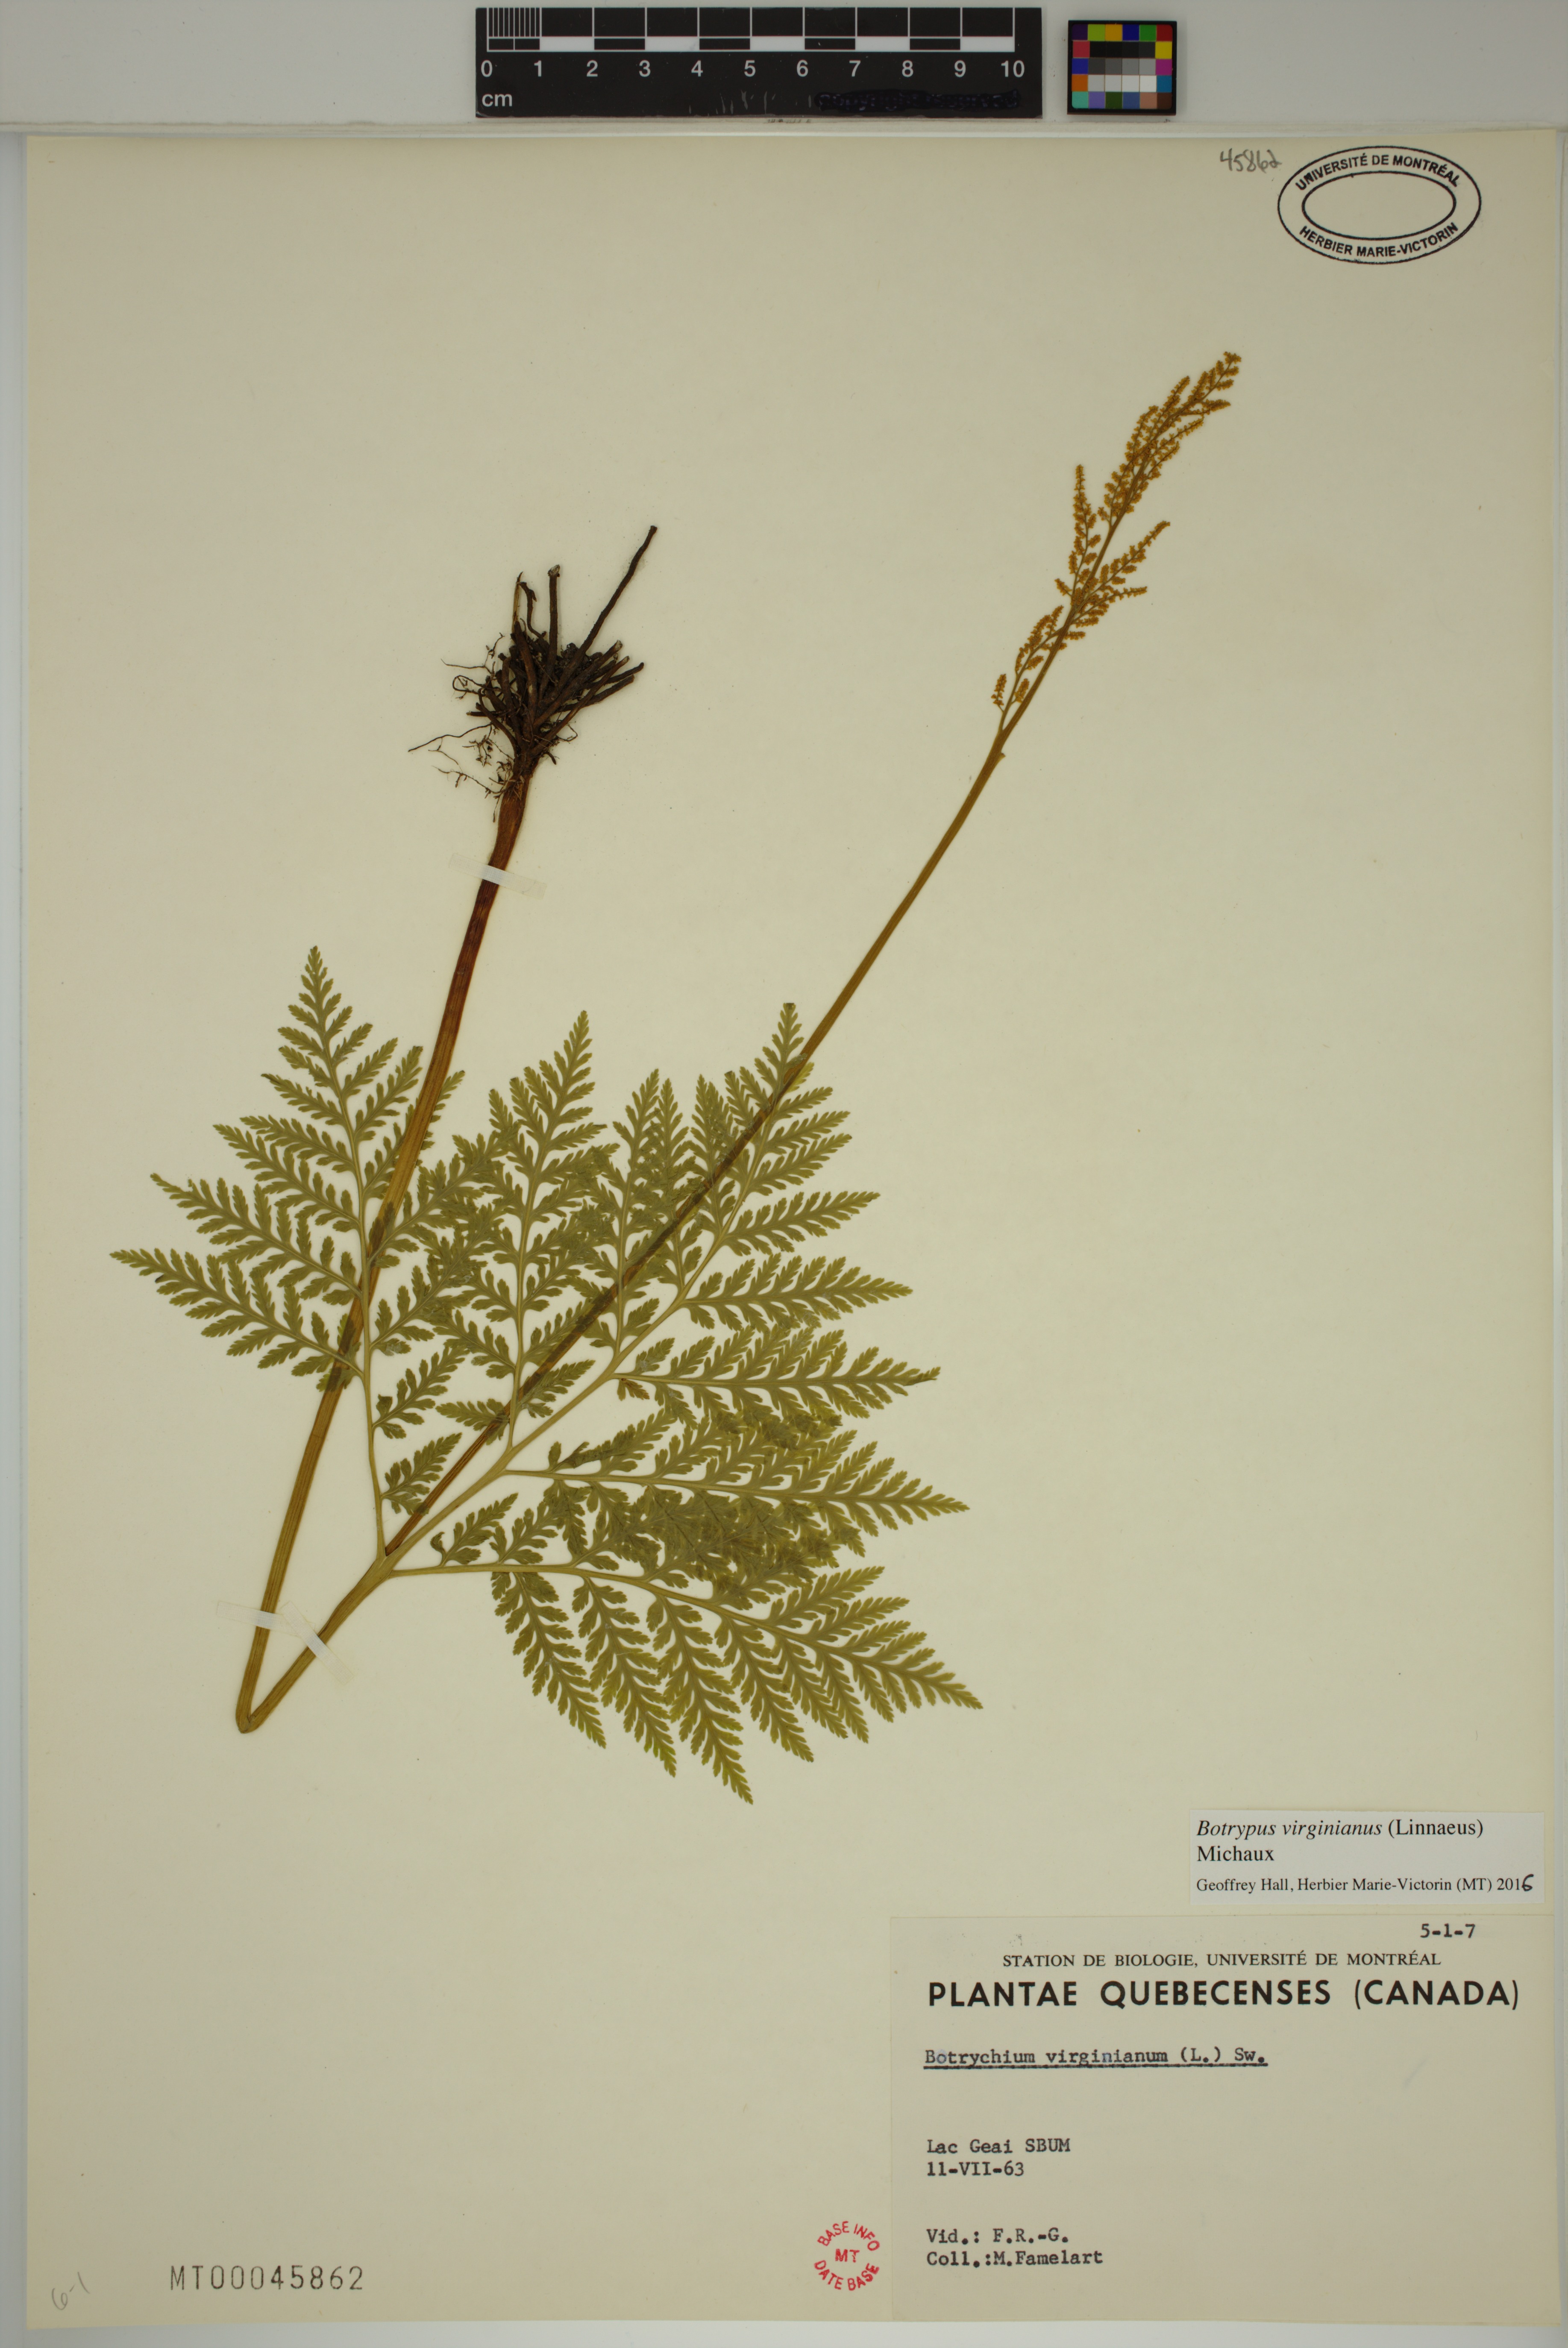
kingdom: Plantae
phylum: Tracheophyta
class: Polypodiopsida
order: Ophioglossales
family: Ophioglossaceae
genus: Botrypus
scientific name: Botrypus virginianus
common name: Common grapefern
